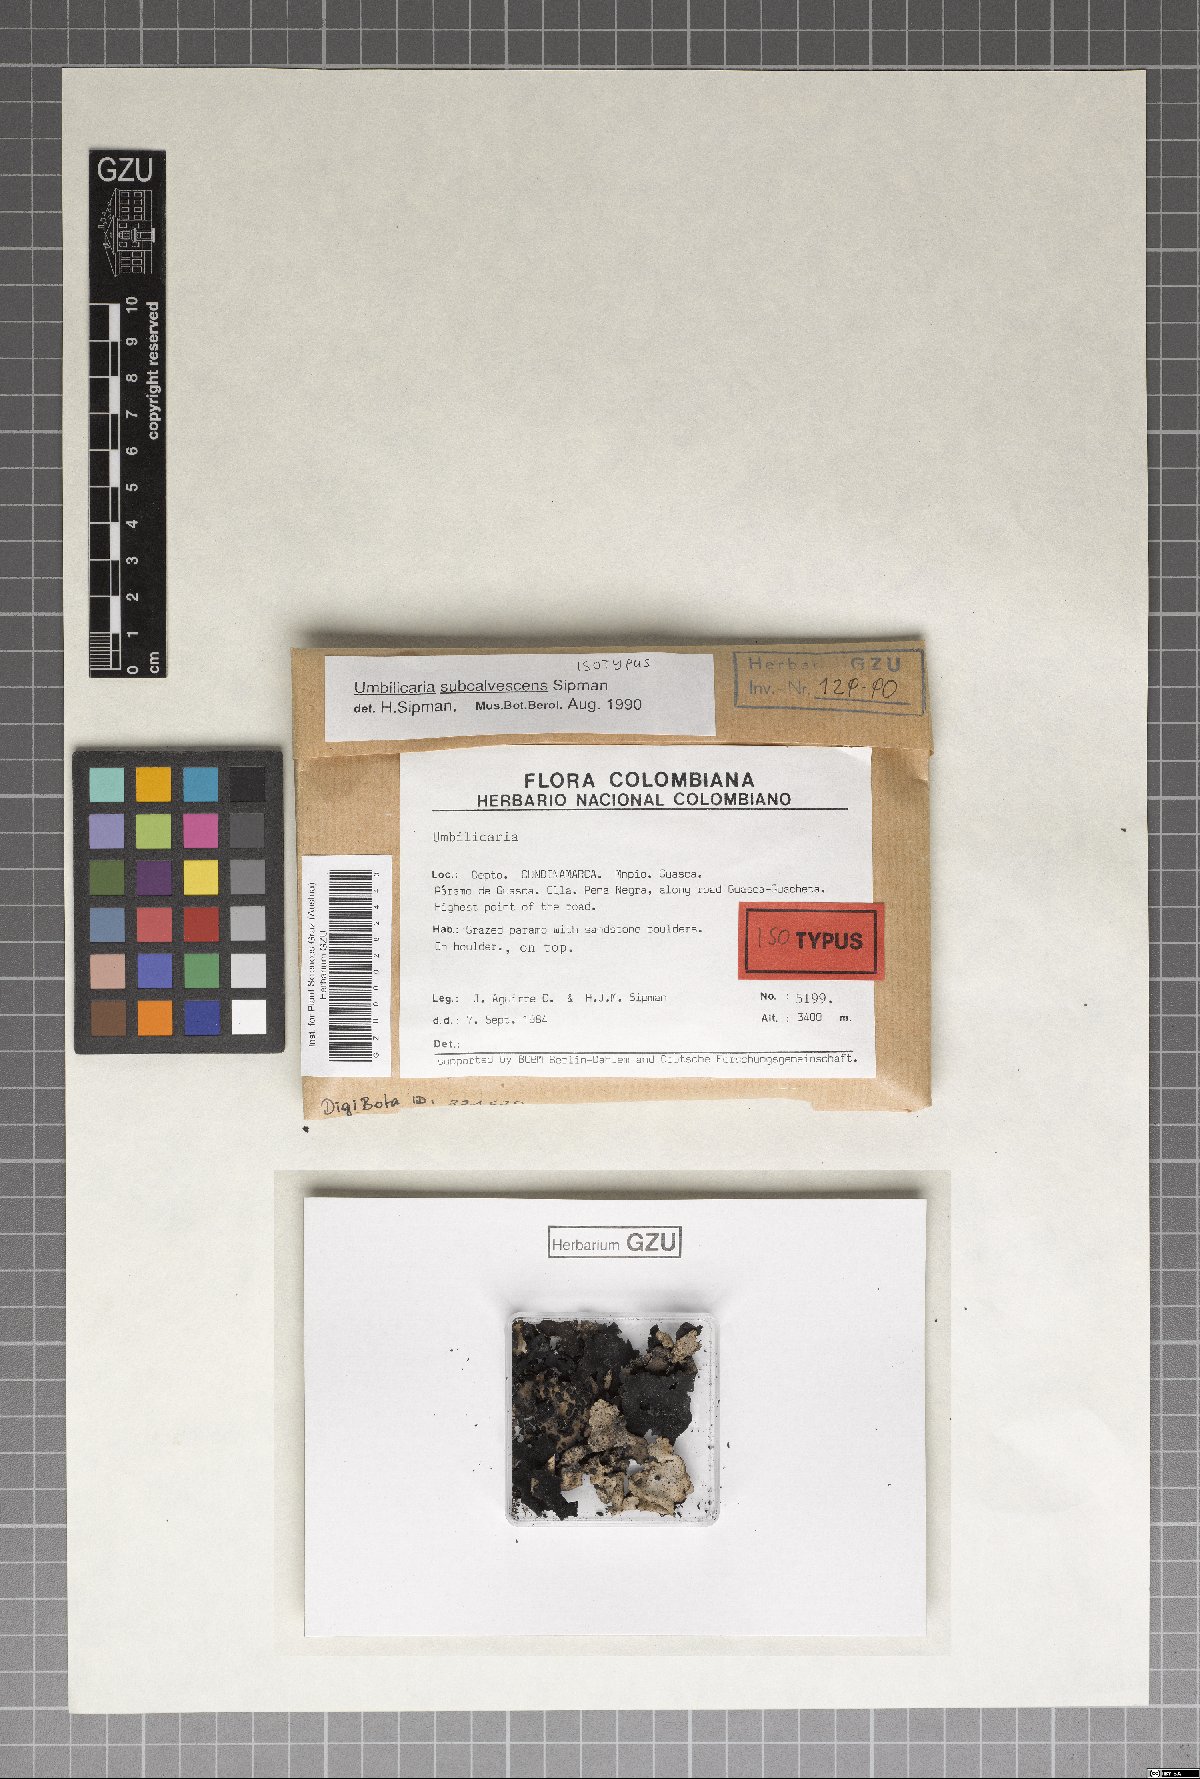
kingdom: Fungi
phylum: Ascomycota
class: Lecanoromycetes
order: Umbilicariales
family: Umbilicariaceae
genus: Umbilicaria
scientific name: Umbilicaria subcalvescens
